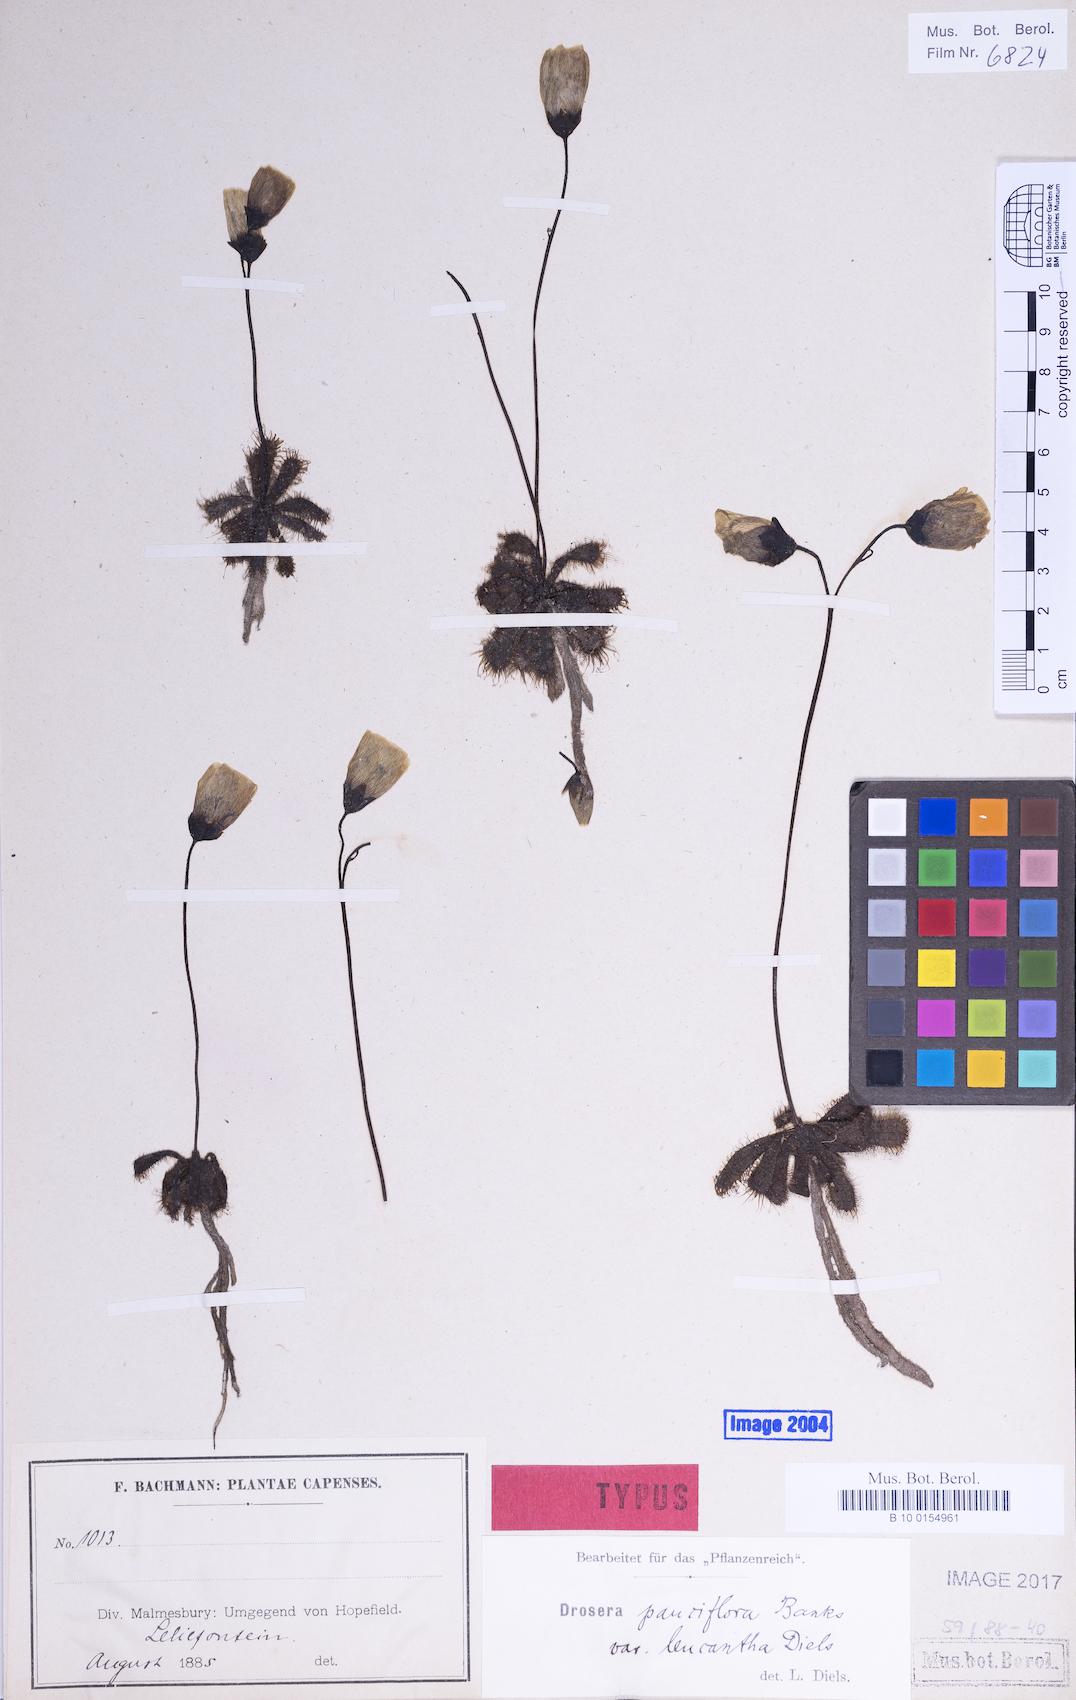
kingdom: Plantae
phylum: Tracheophyta
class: Magnoliopsida
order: Caryophyllales
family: Droseraceae
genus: Drosera
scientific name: Drosera pauciflora
